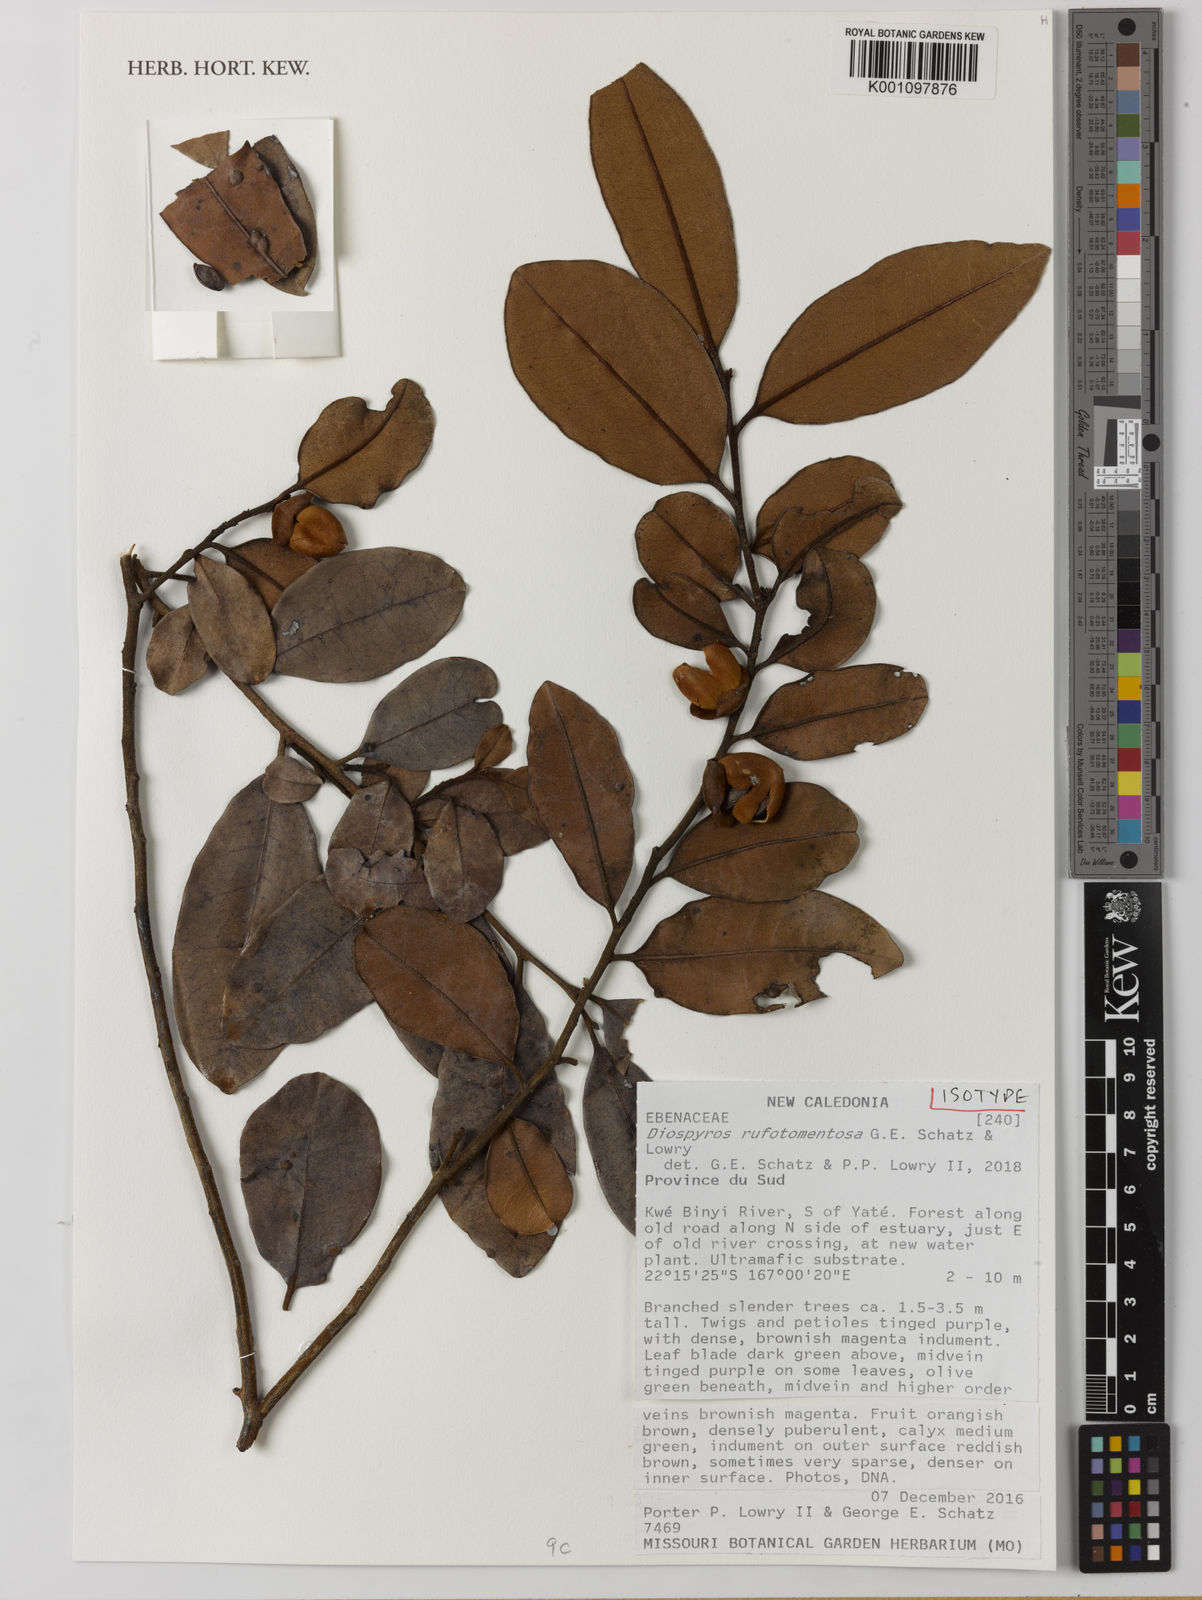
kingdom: Plantae
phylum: Tracheophyta
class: Magnoliopsida
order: Ericales
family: Ebenaceae
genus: Diospyros
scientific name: Diospyros rufotomentosa
